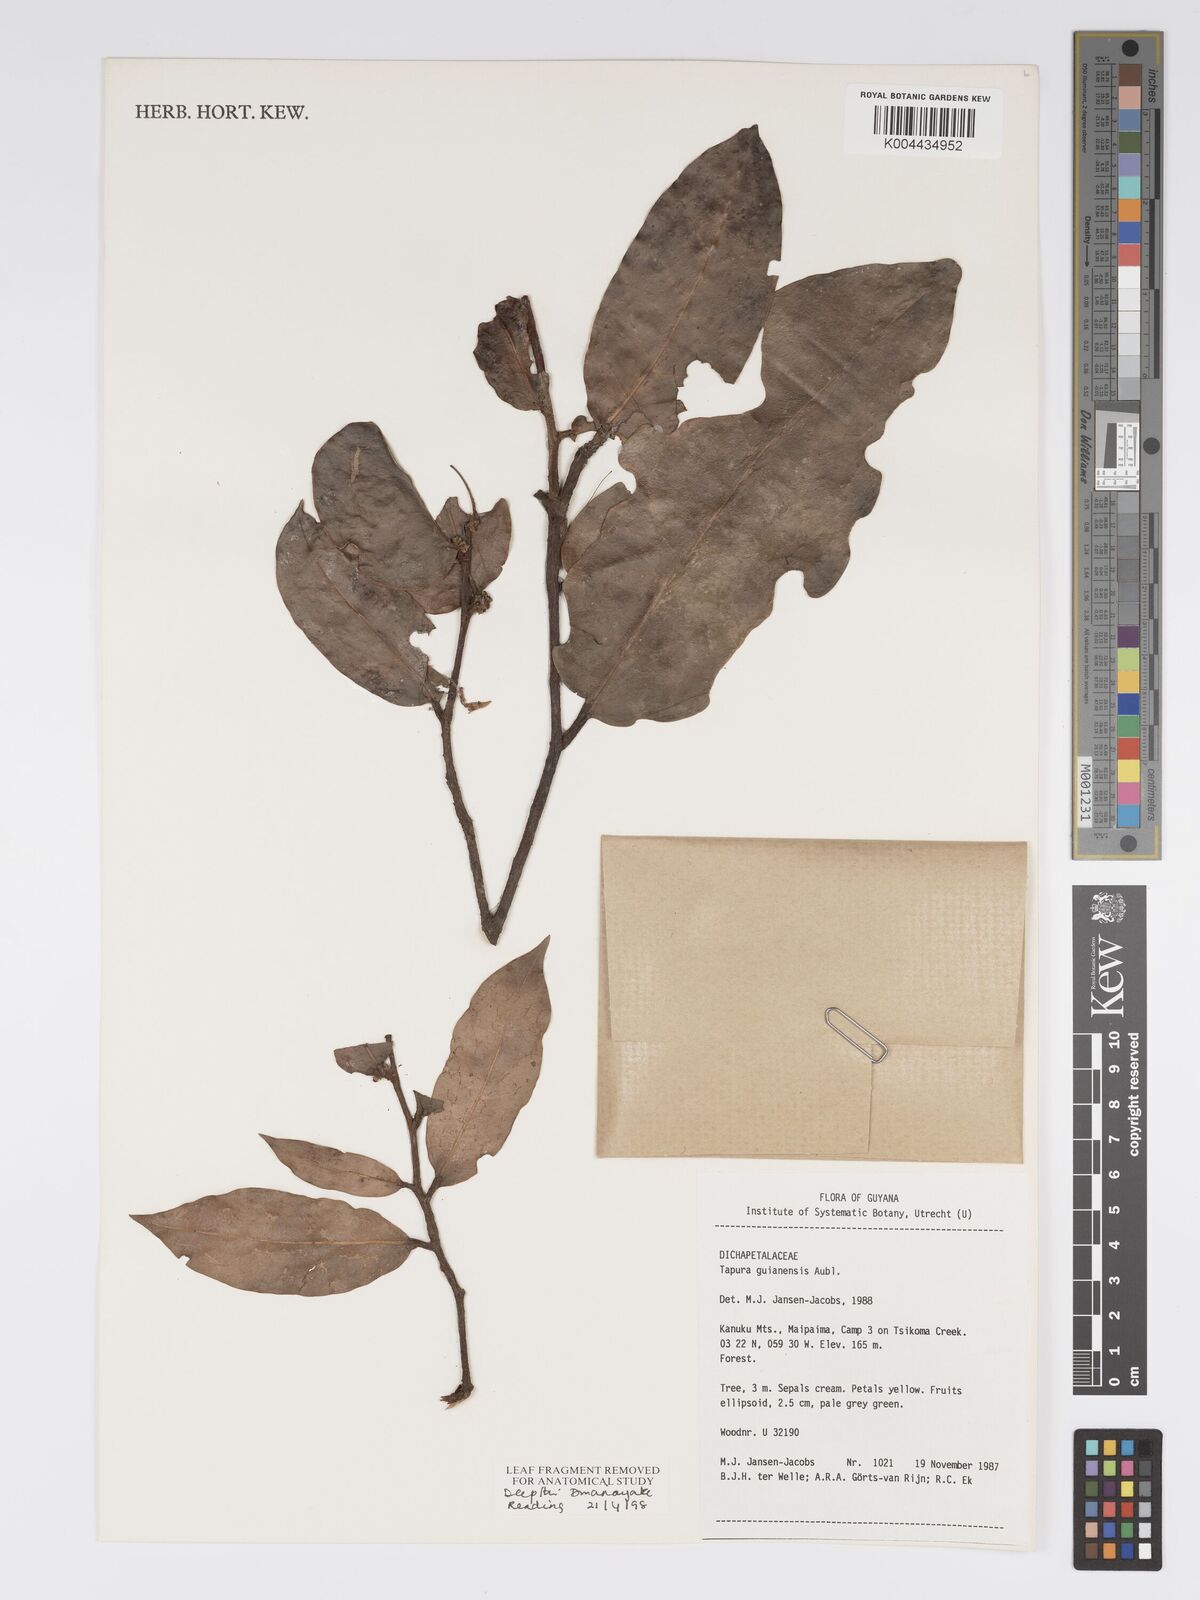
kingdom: Plantae
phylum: Tracheophyta
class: Magnoliopsida
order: Malpighiales
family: Dichapetalaceae
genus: Tapura
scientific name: Tapura guianensis
